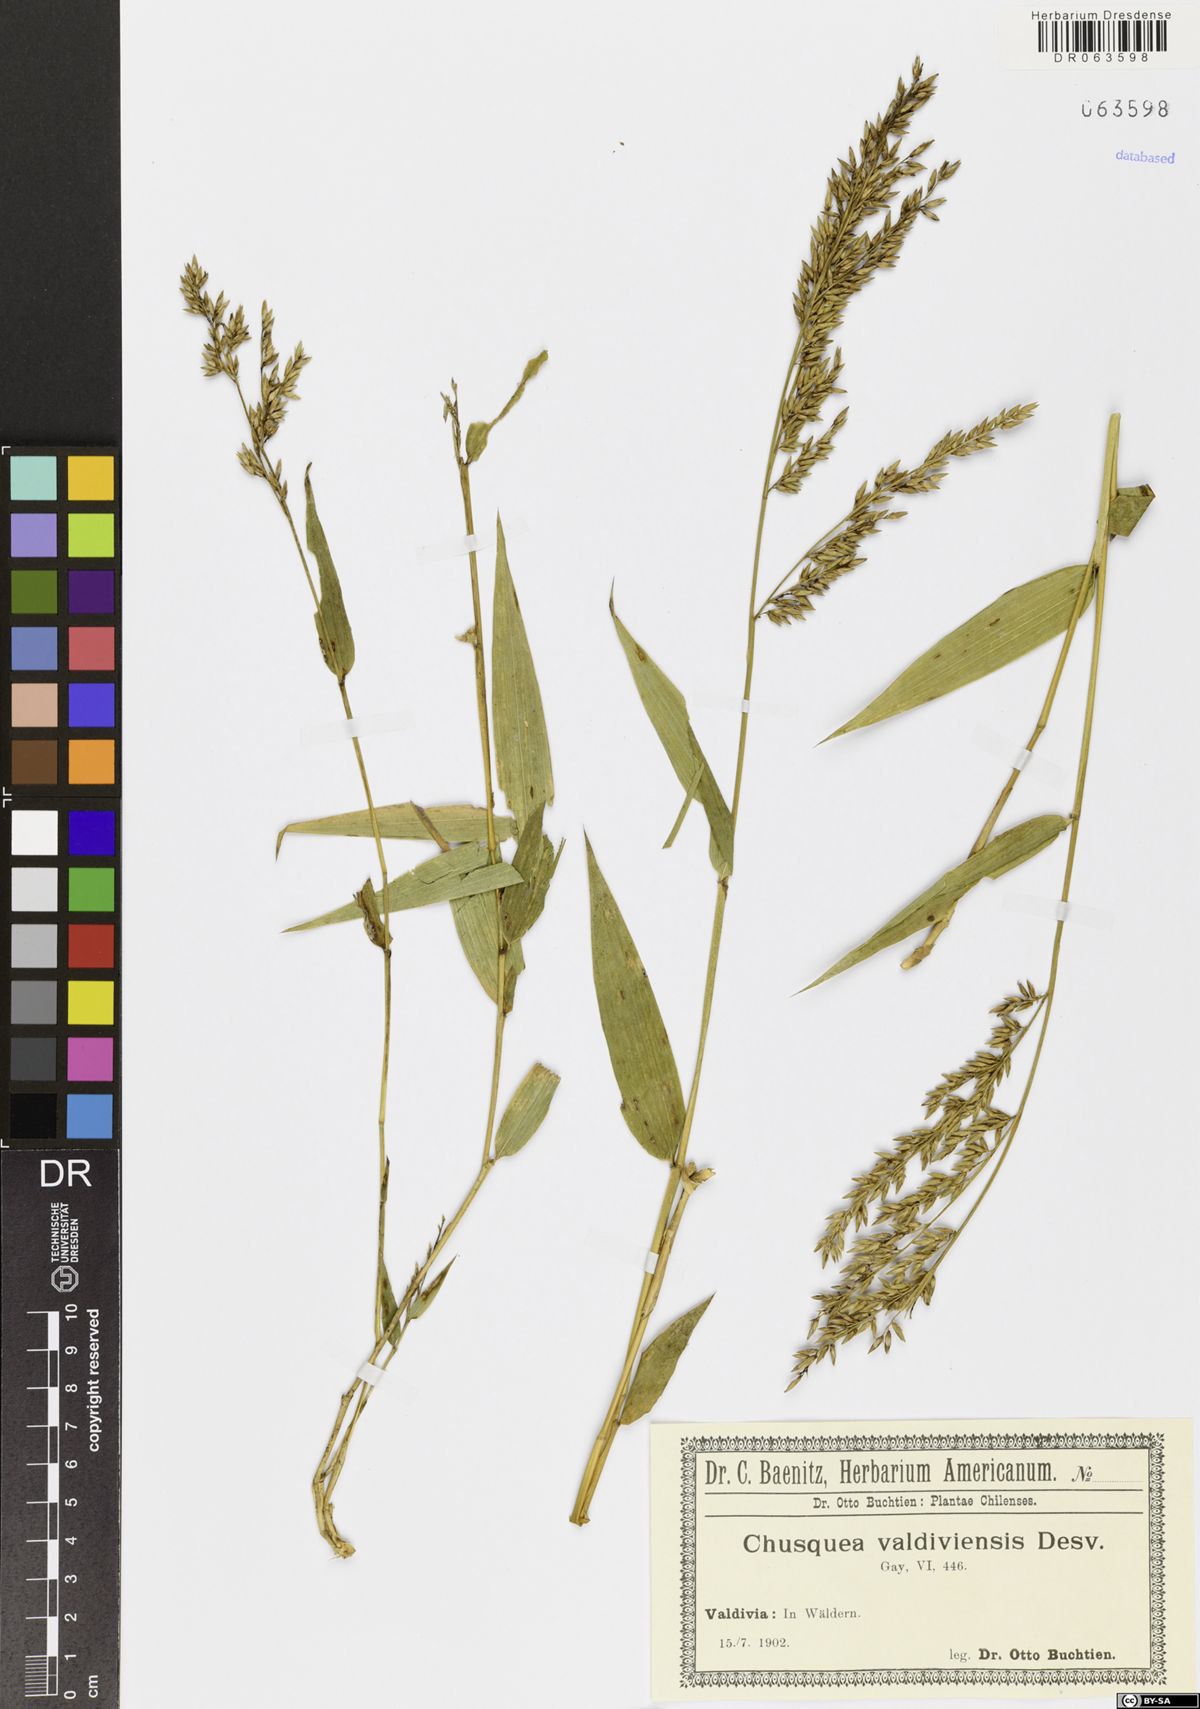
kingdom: Plantae
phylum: Tracheophyta
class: Liliopsida
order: Poales
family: Poaceae
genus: Chusquea
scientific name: Chusquea valdiviensis
